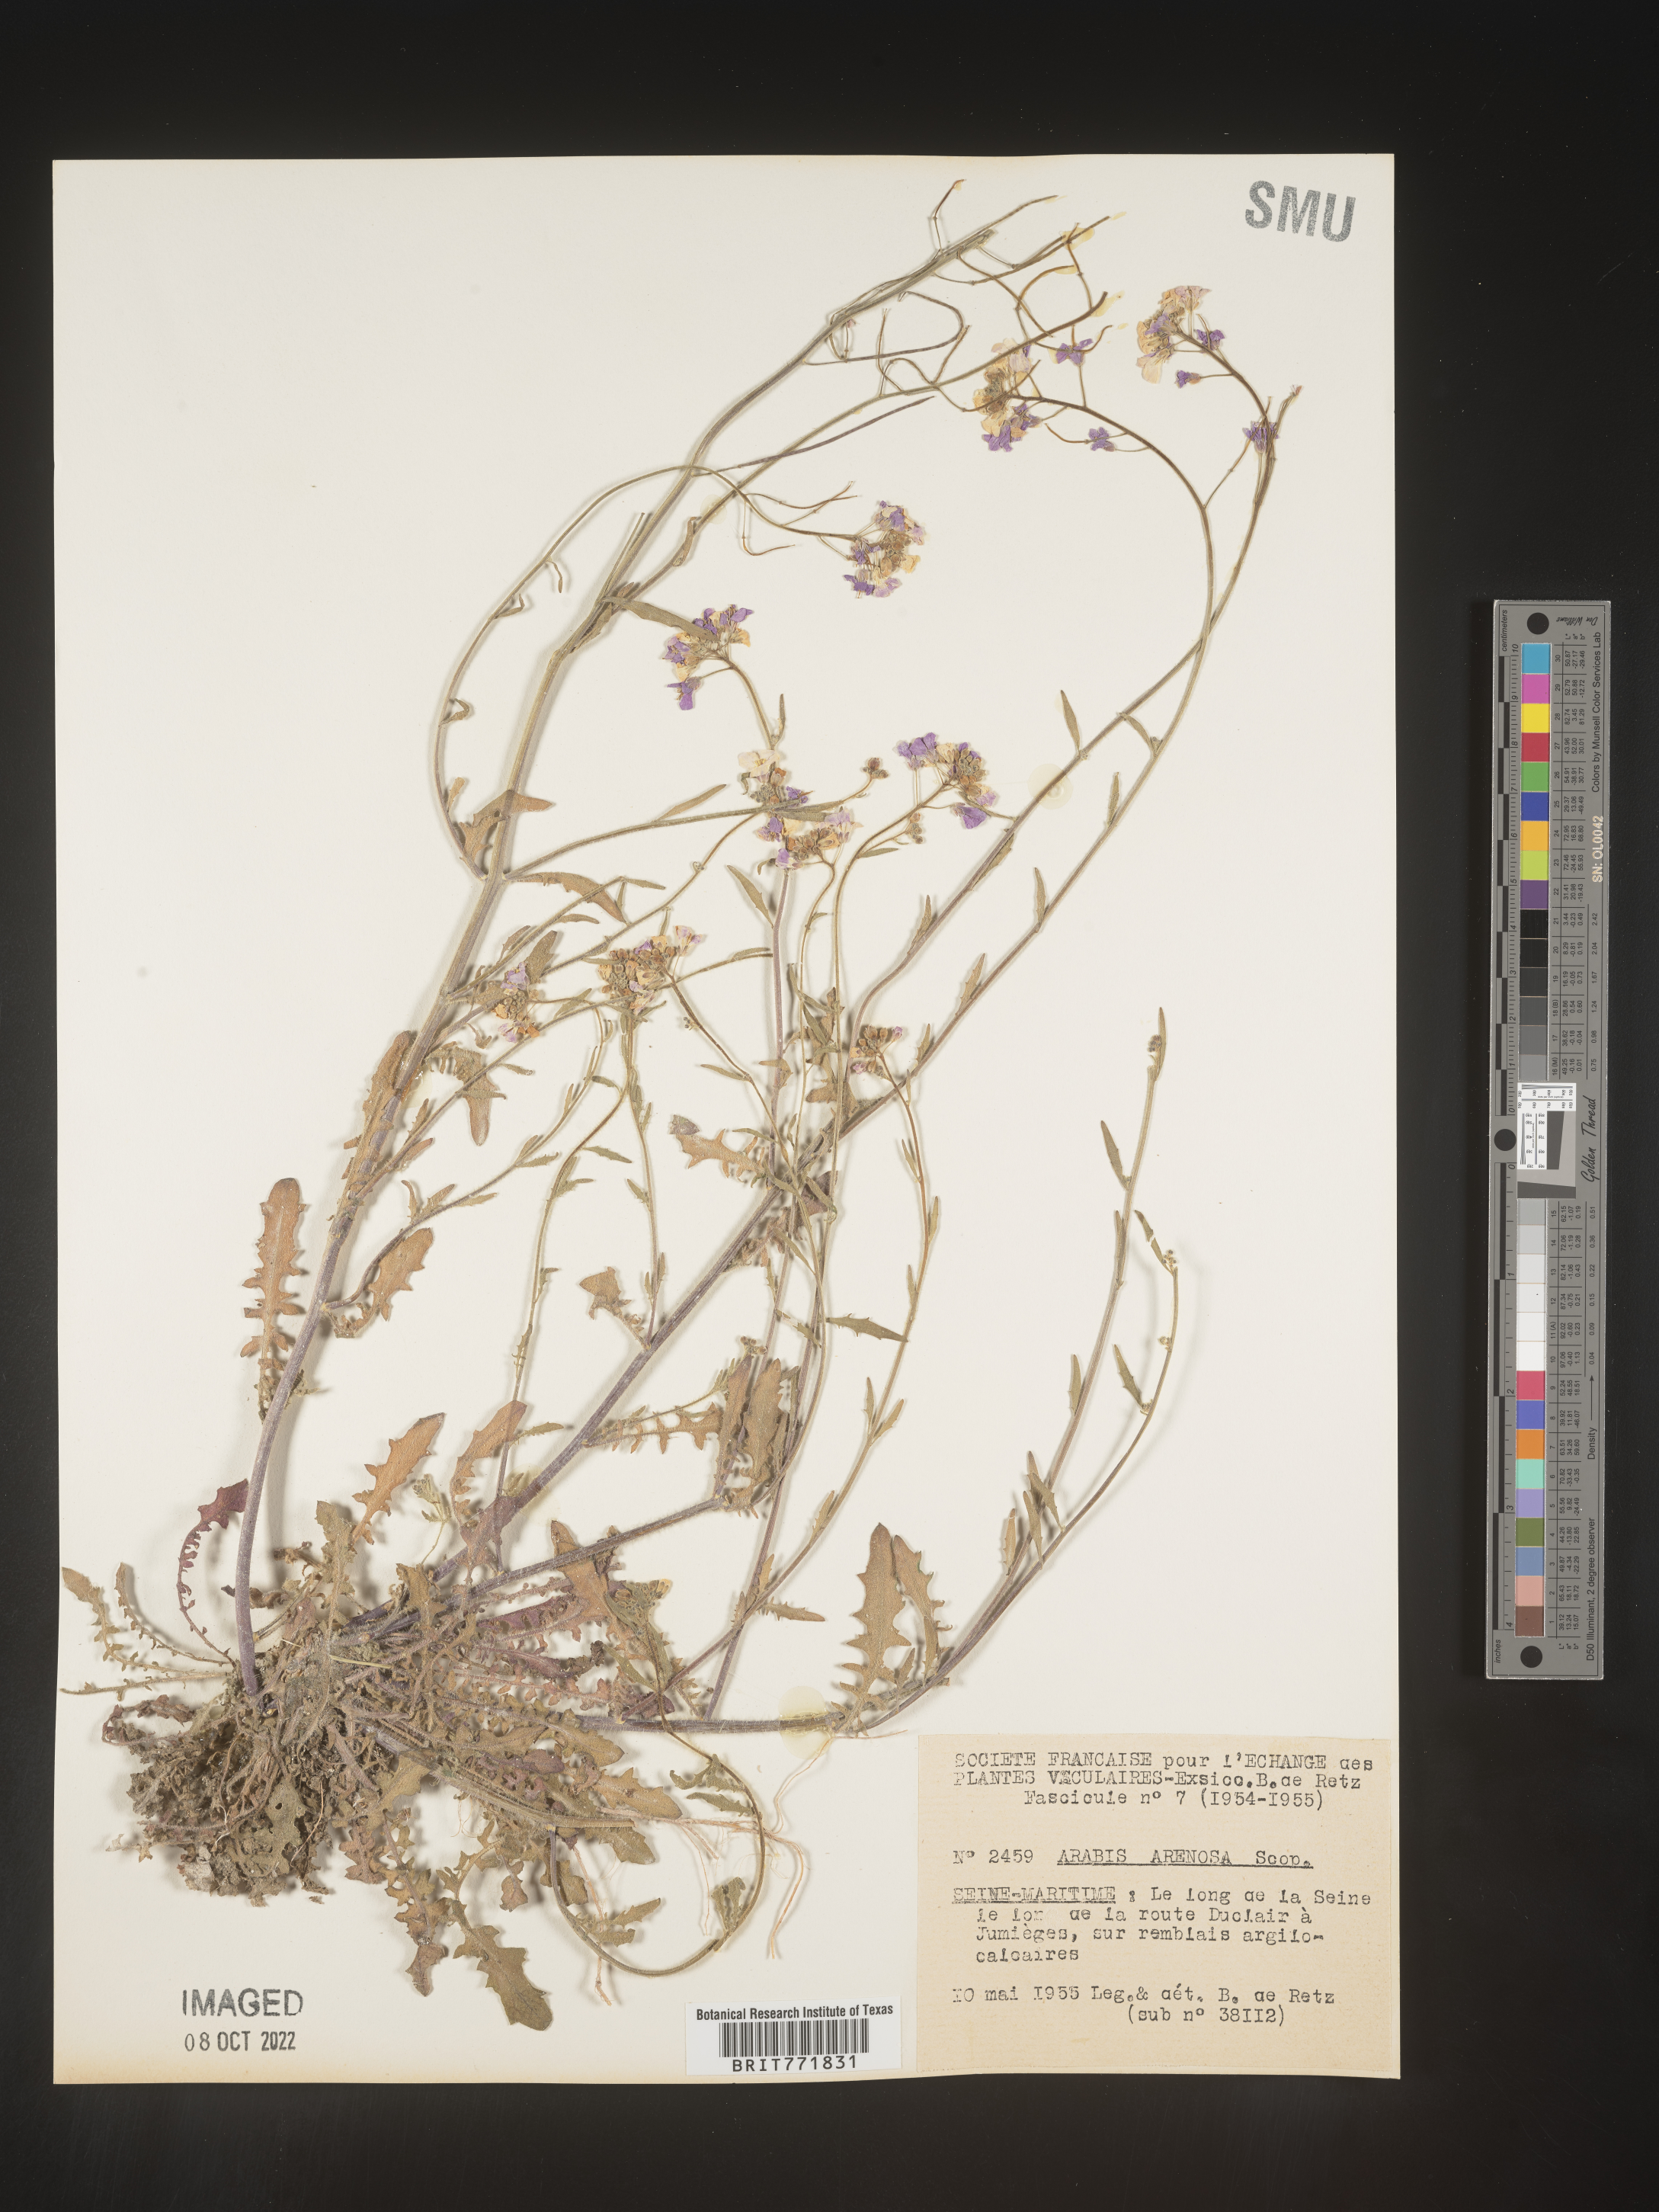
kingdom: Plantae
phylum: Tracheophyta
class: Magnoliopsida
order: Brassicales
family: Brassicaceae
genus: Arabis
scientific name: Arabis
